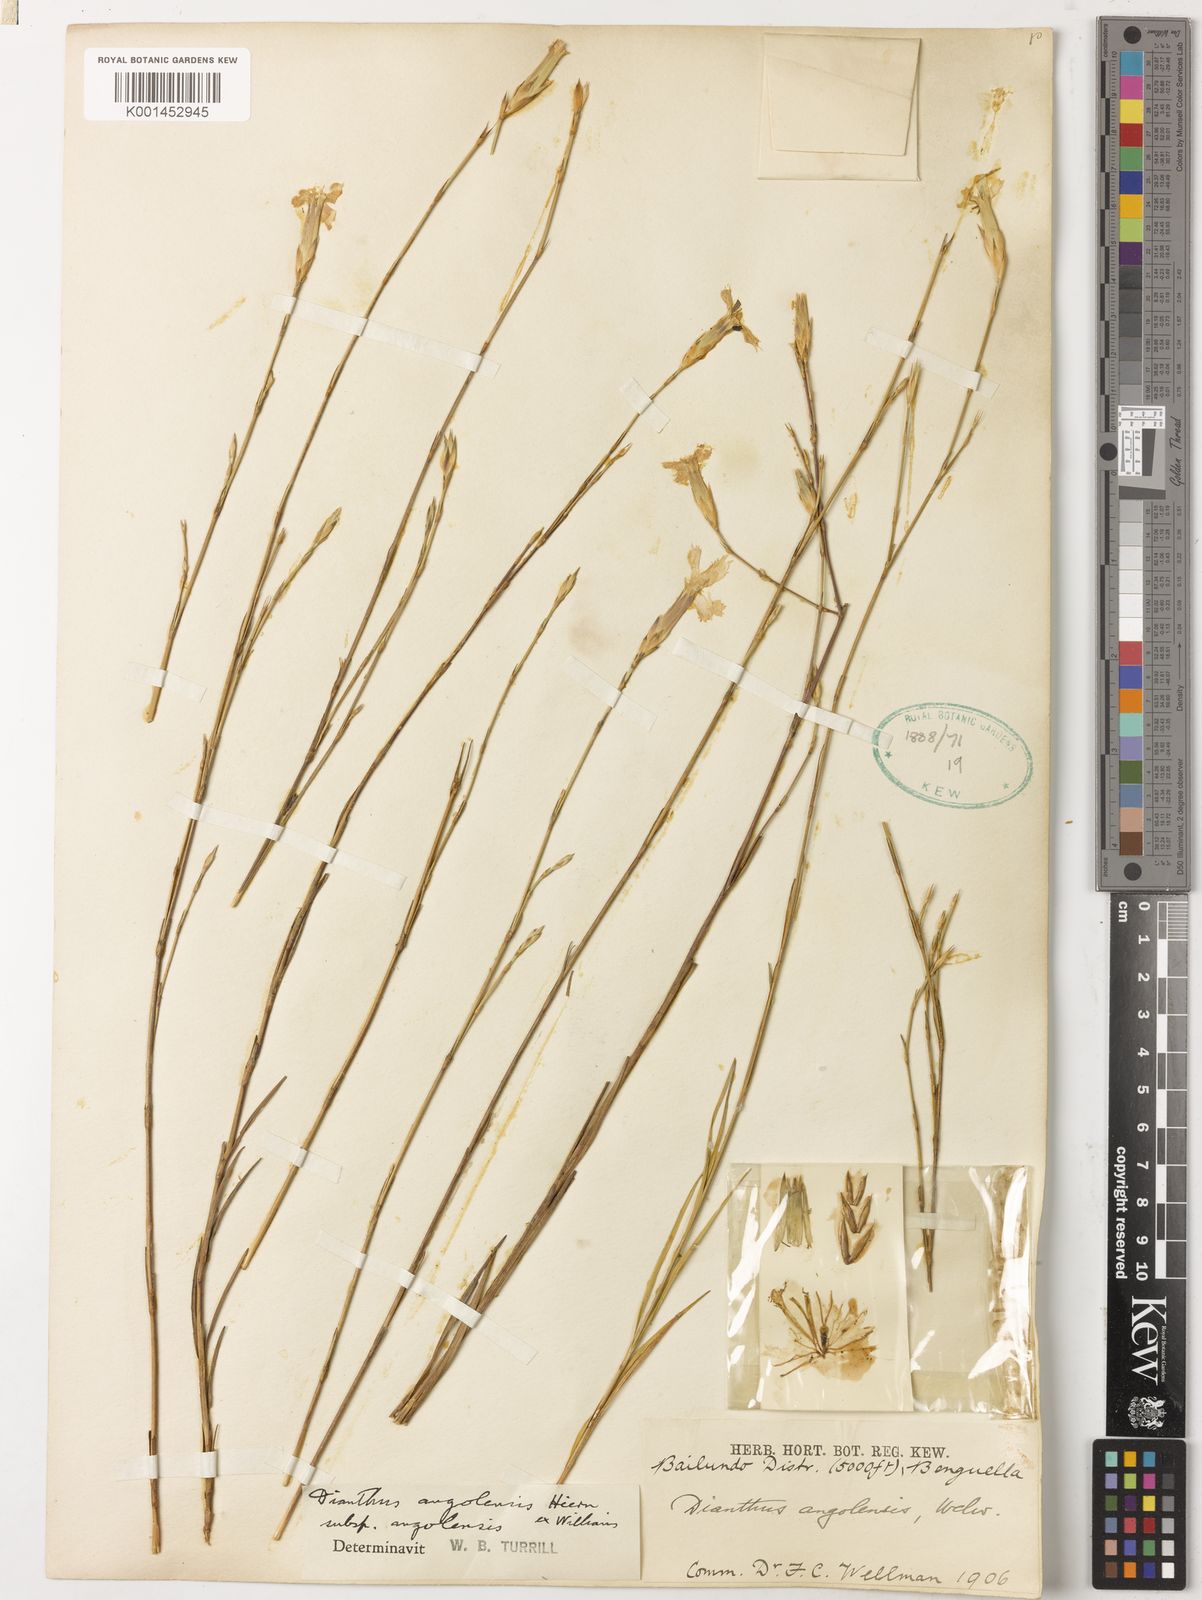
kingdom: Plantae
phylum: Tracheophyta
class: Magnoliopsida
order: Caryophyllales
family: Caryophyllaceae
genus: Dianthus
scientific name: Dianthus angolensis
